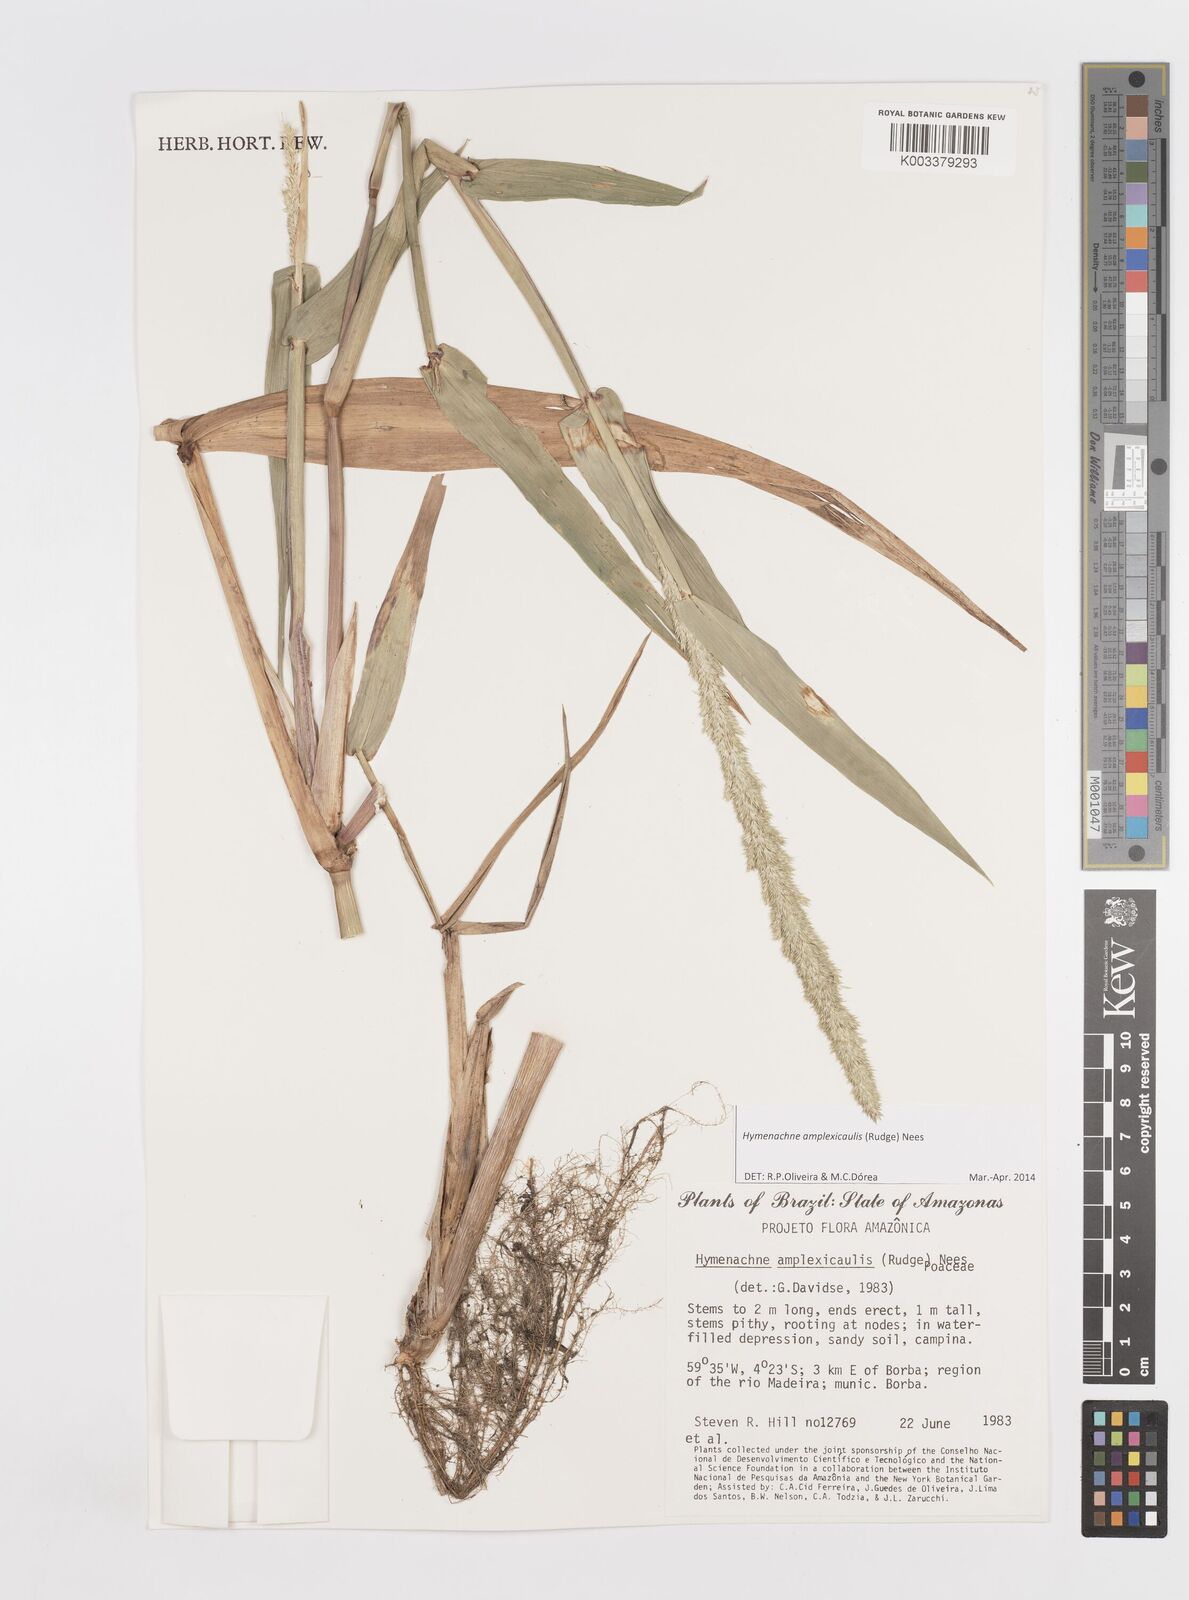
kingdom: Plantae
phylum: Tracheophyta
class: Liliopsida
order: Poales
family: Poaceae
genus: Hymenachne
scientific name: Hymenachne amplexicaulis
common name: Olive hymenachne
